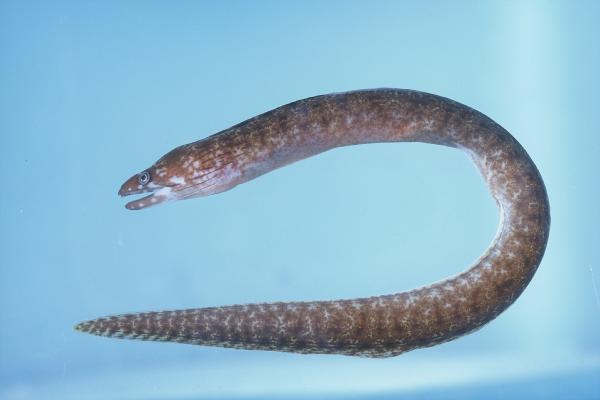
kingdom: Animalia
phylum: Chordata
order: Anguilliformes
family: Muraenidae
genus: Gymnothorax
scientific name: Gymnothorax chilospilus
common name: Lipspot moray
